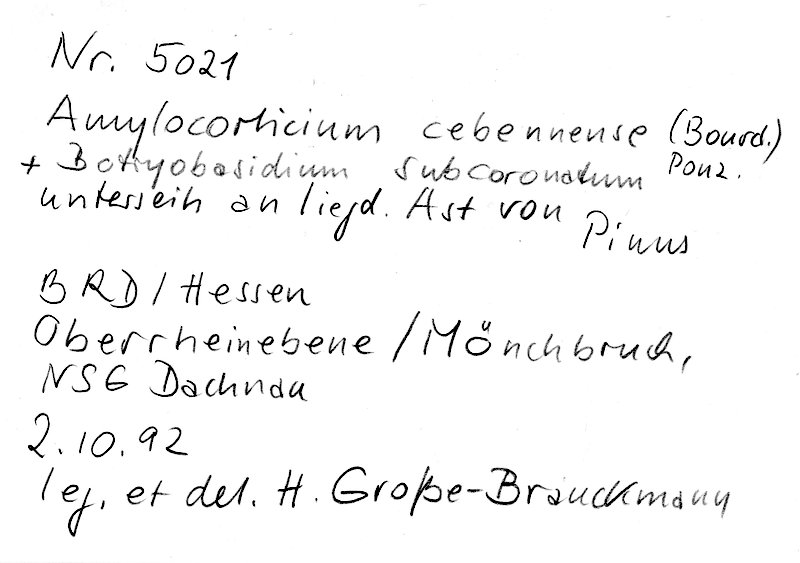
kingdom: Fungi
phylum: Basidiomycota
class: Agaricomycetes
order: Cantharellales
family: Botryobasidiaceae
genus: Botryobasidium
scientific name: Botryobasidium subcoronatum
